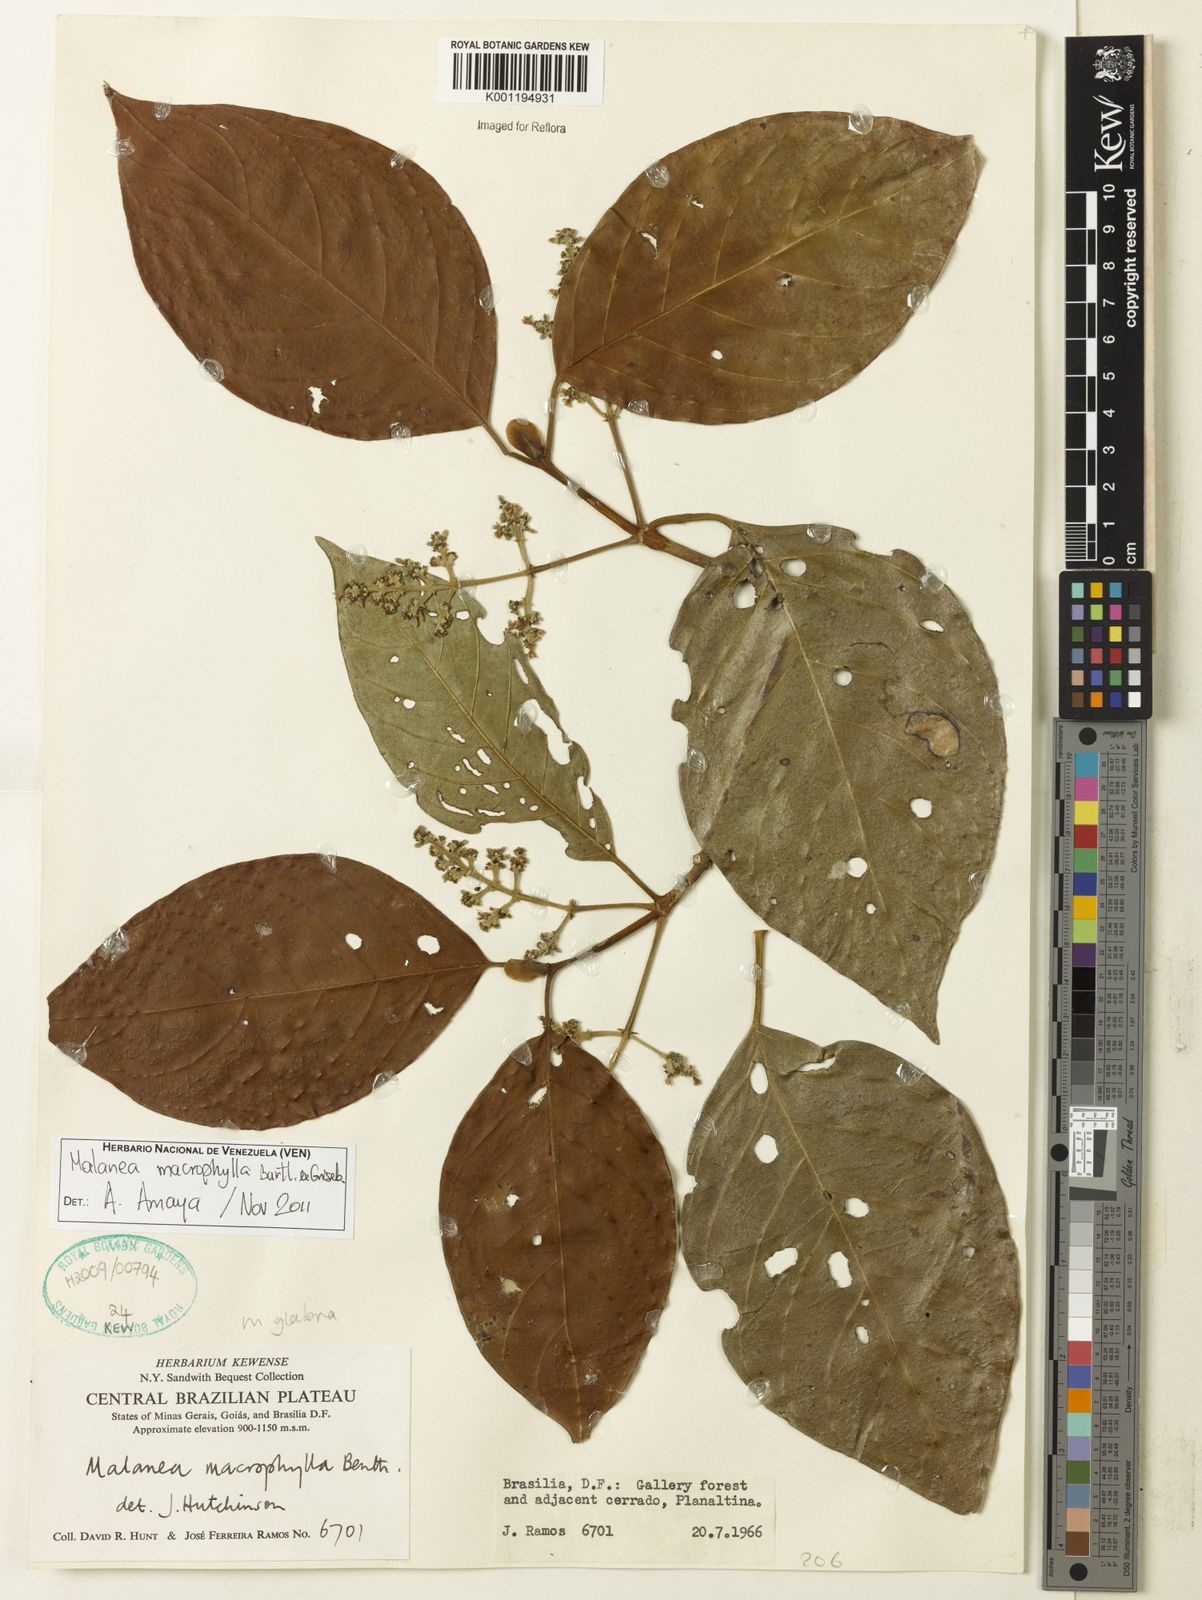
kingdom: Plantae
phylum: Tracheophyta
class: Magnoliopsida
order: Gentianales
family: Rubiaceae
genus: Malanea
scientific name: Malanea glabra
